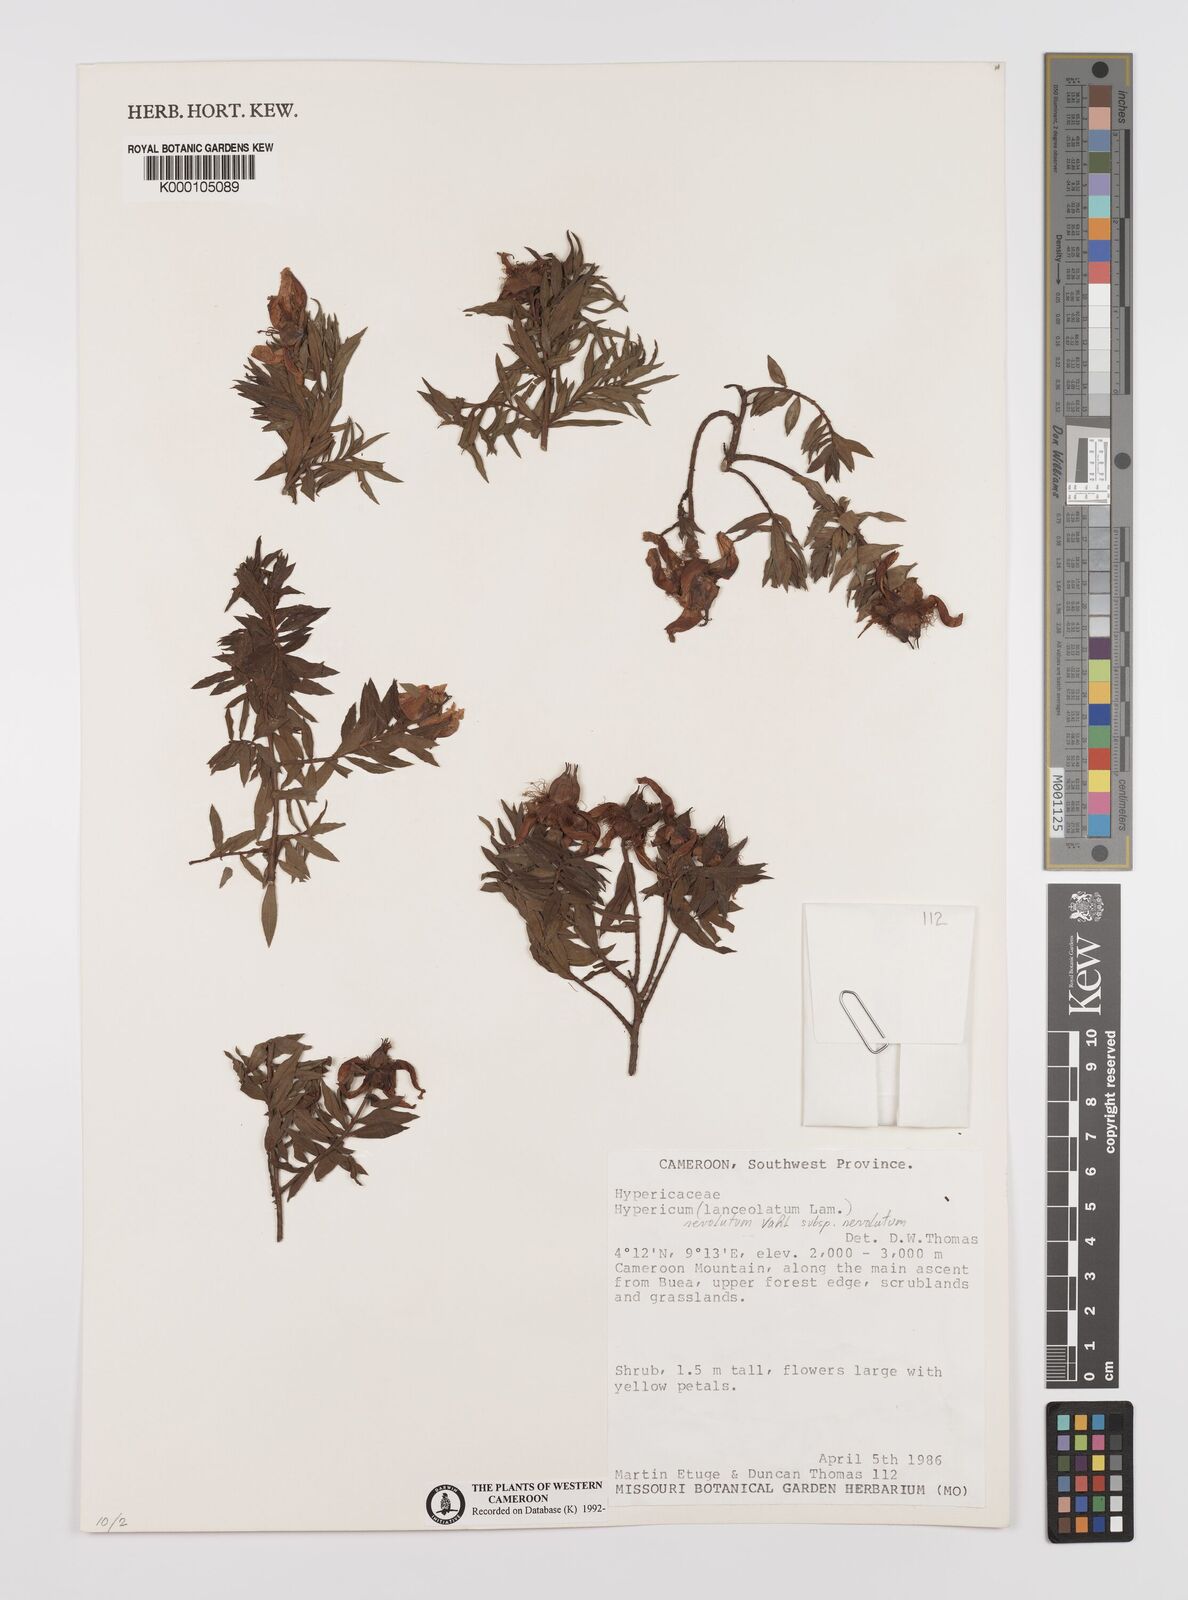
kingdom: Plantae
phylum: Tracheophyta
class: Magnoliopsida
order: Malpighiales
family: Hypericaceae
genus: Hypericum
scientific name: Hypericum revolutum
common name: Curry bush
